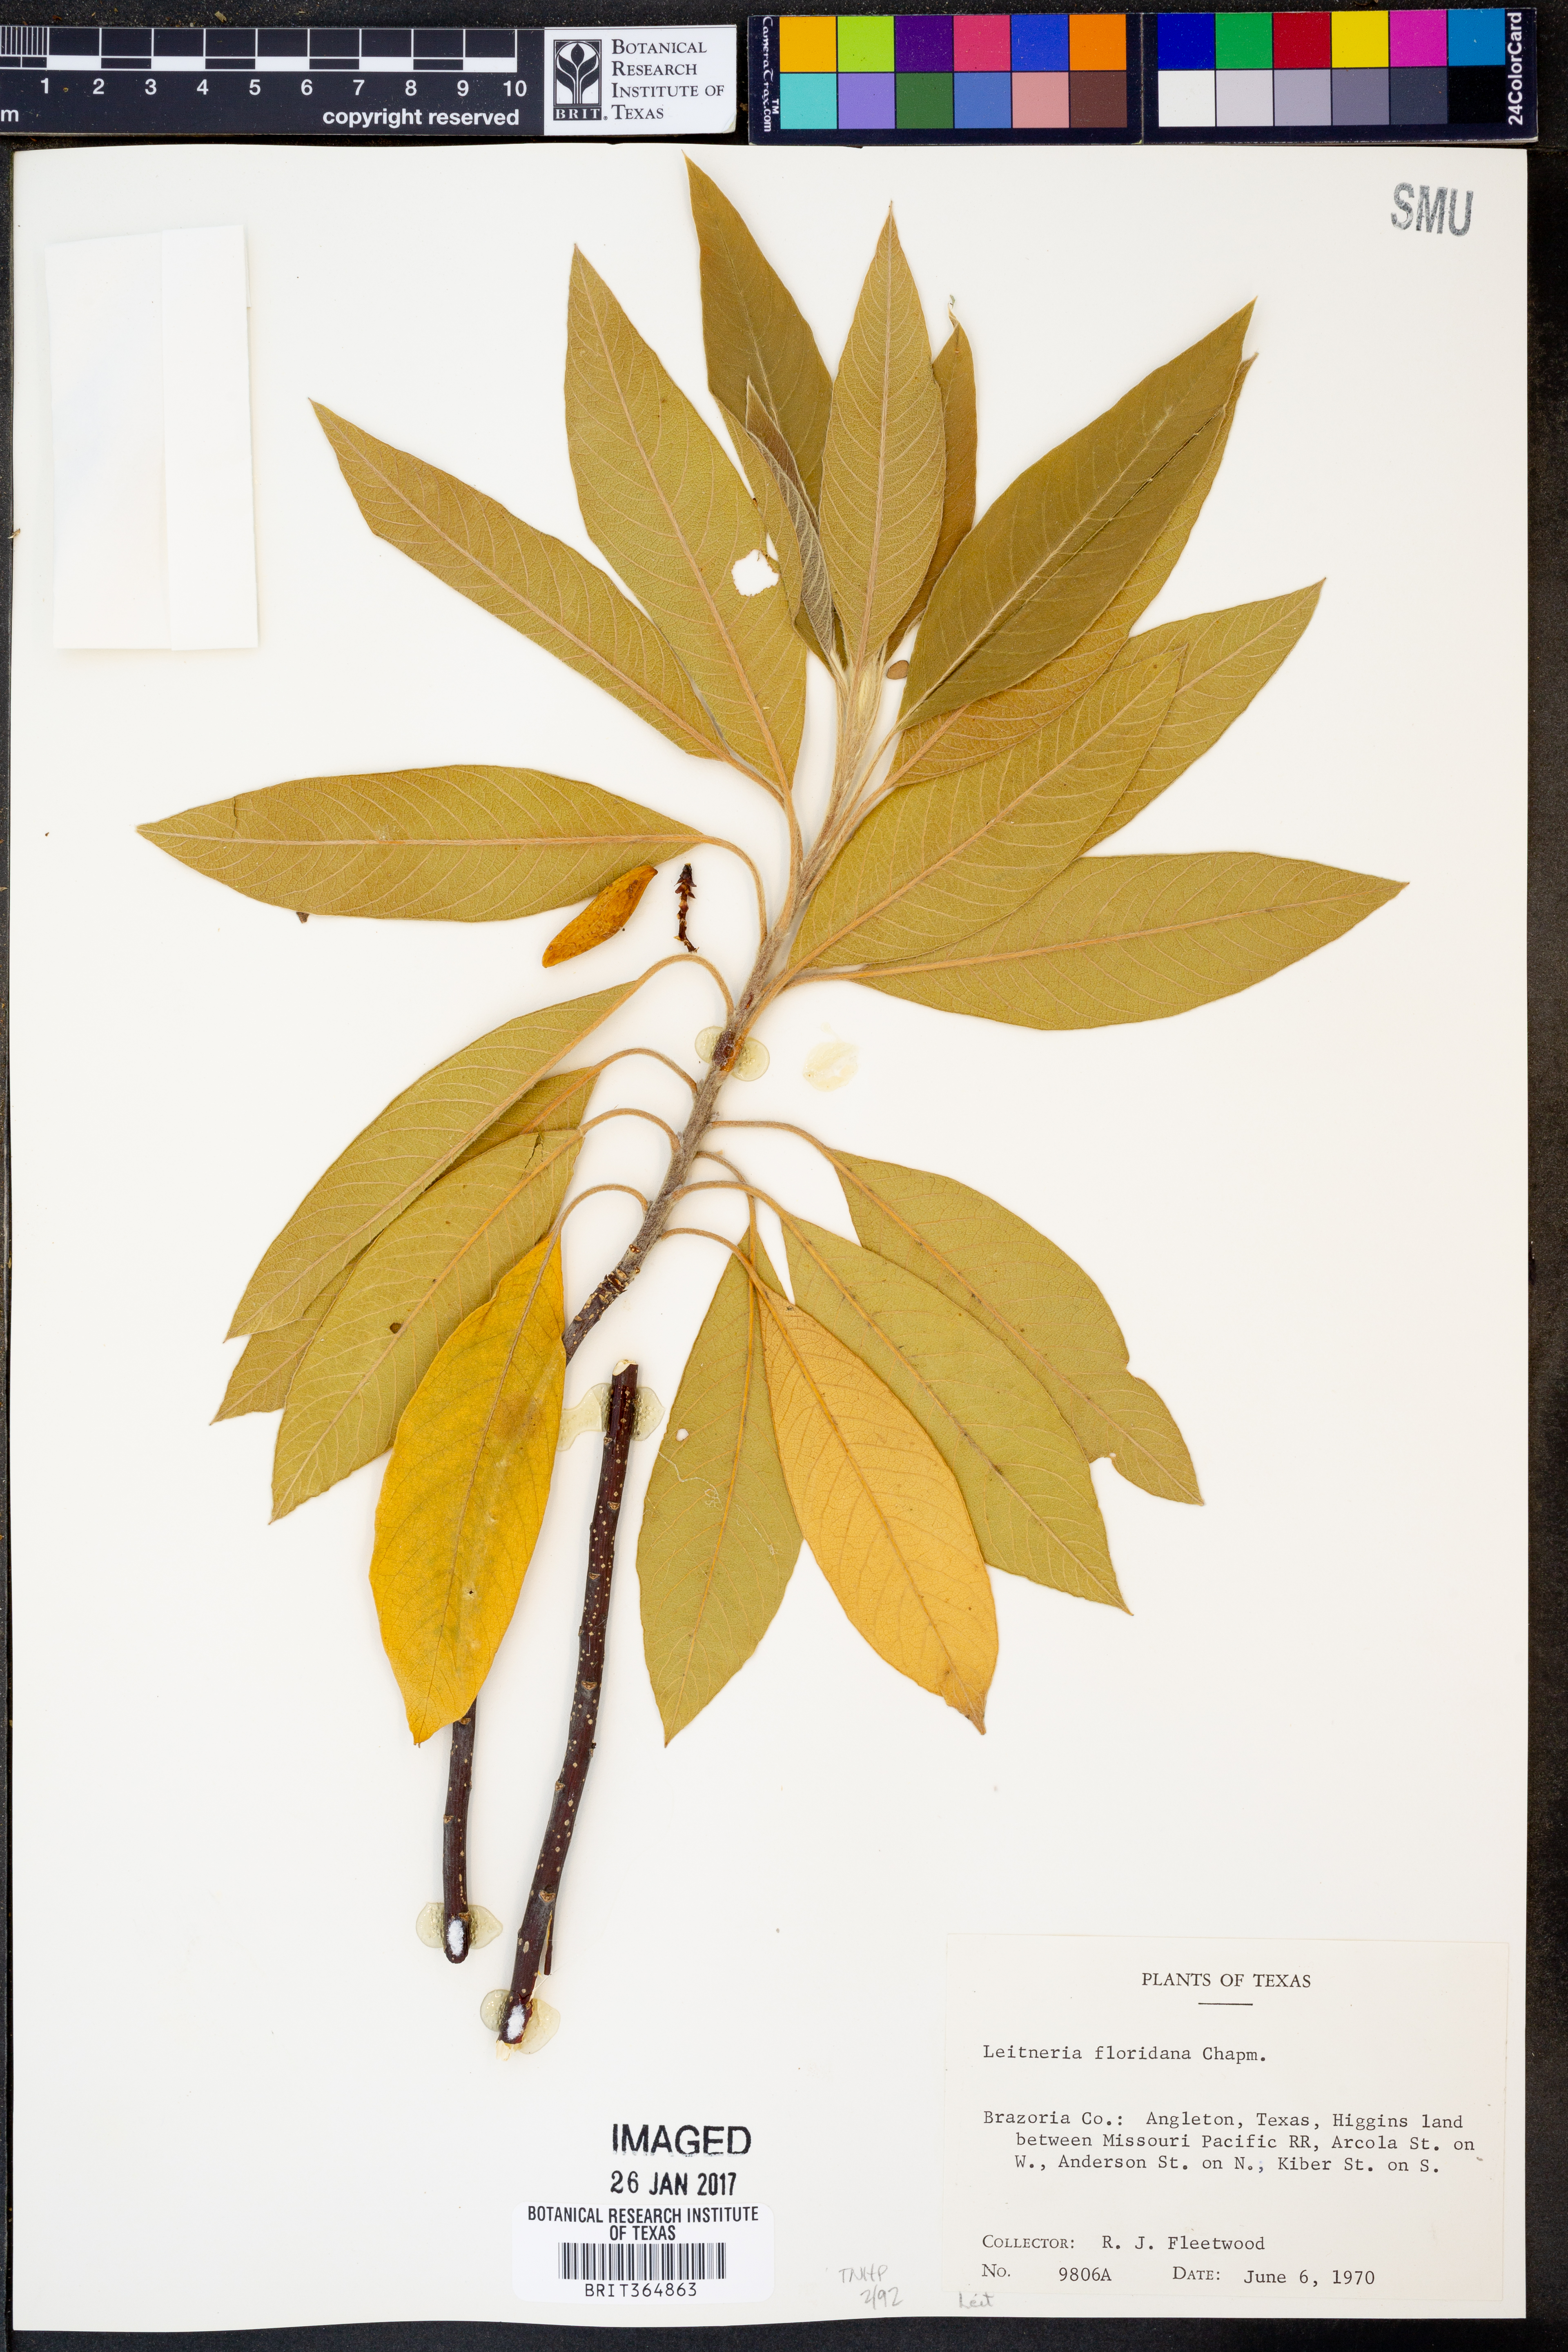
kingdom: Plantae
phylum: Tracheophyta
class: Magnoliopsida
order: Sapindales
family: Simaroubaceae
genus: Leitneria
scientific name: Leitneria floridana
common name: Corkwood
